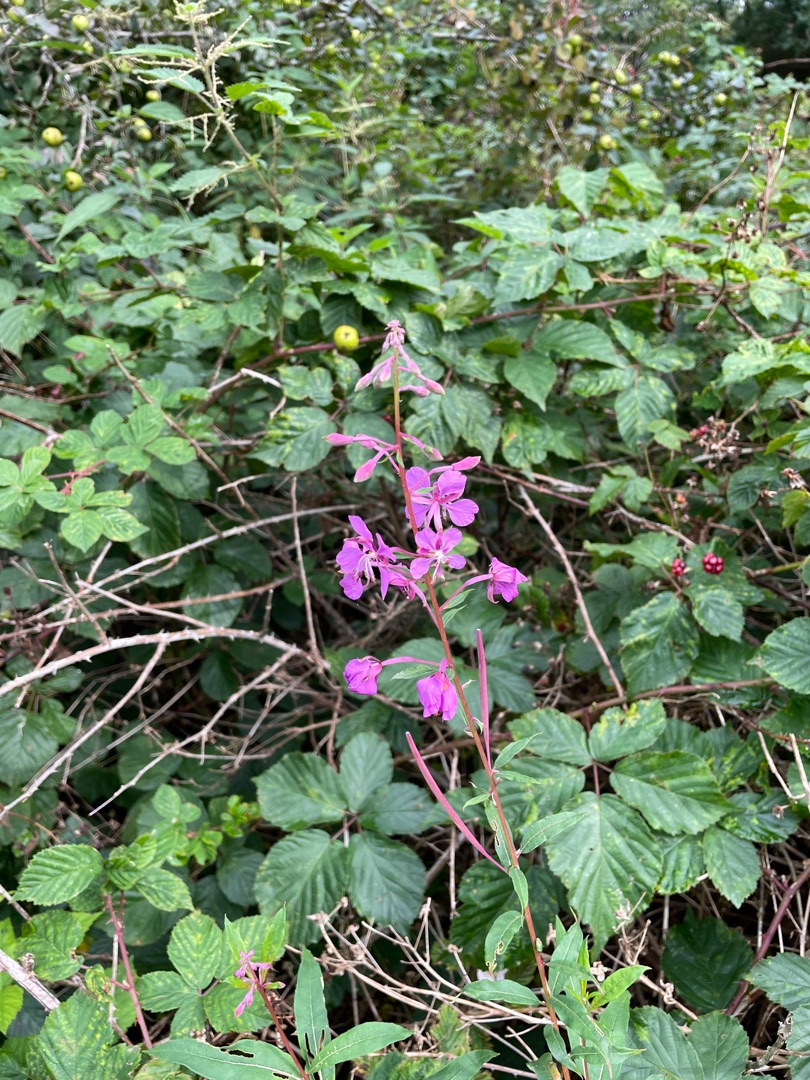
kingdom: Plantae
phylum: Tracheophyta
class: Magnoliopsida
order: Myrtales
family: Onagraceae
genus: Chamaenerion
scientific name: Chamaenerion angustifolium
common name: Gederams
